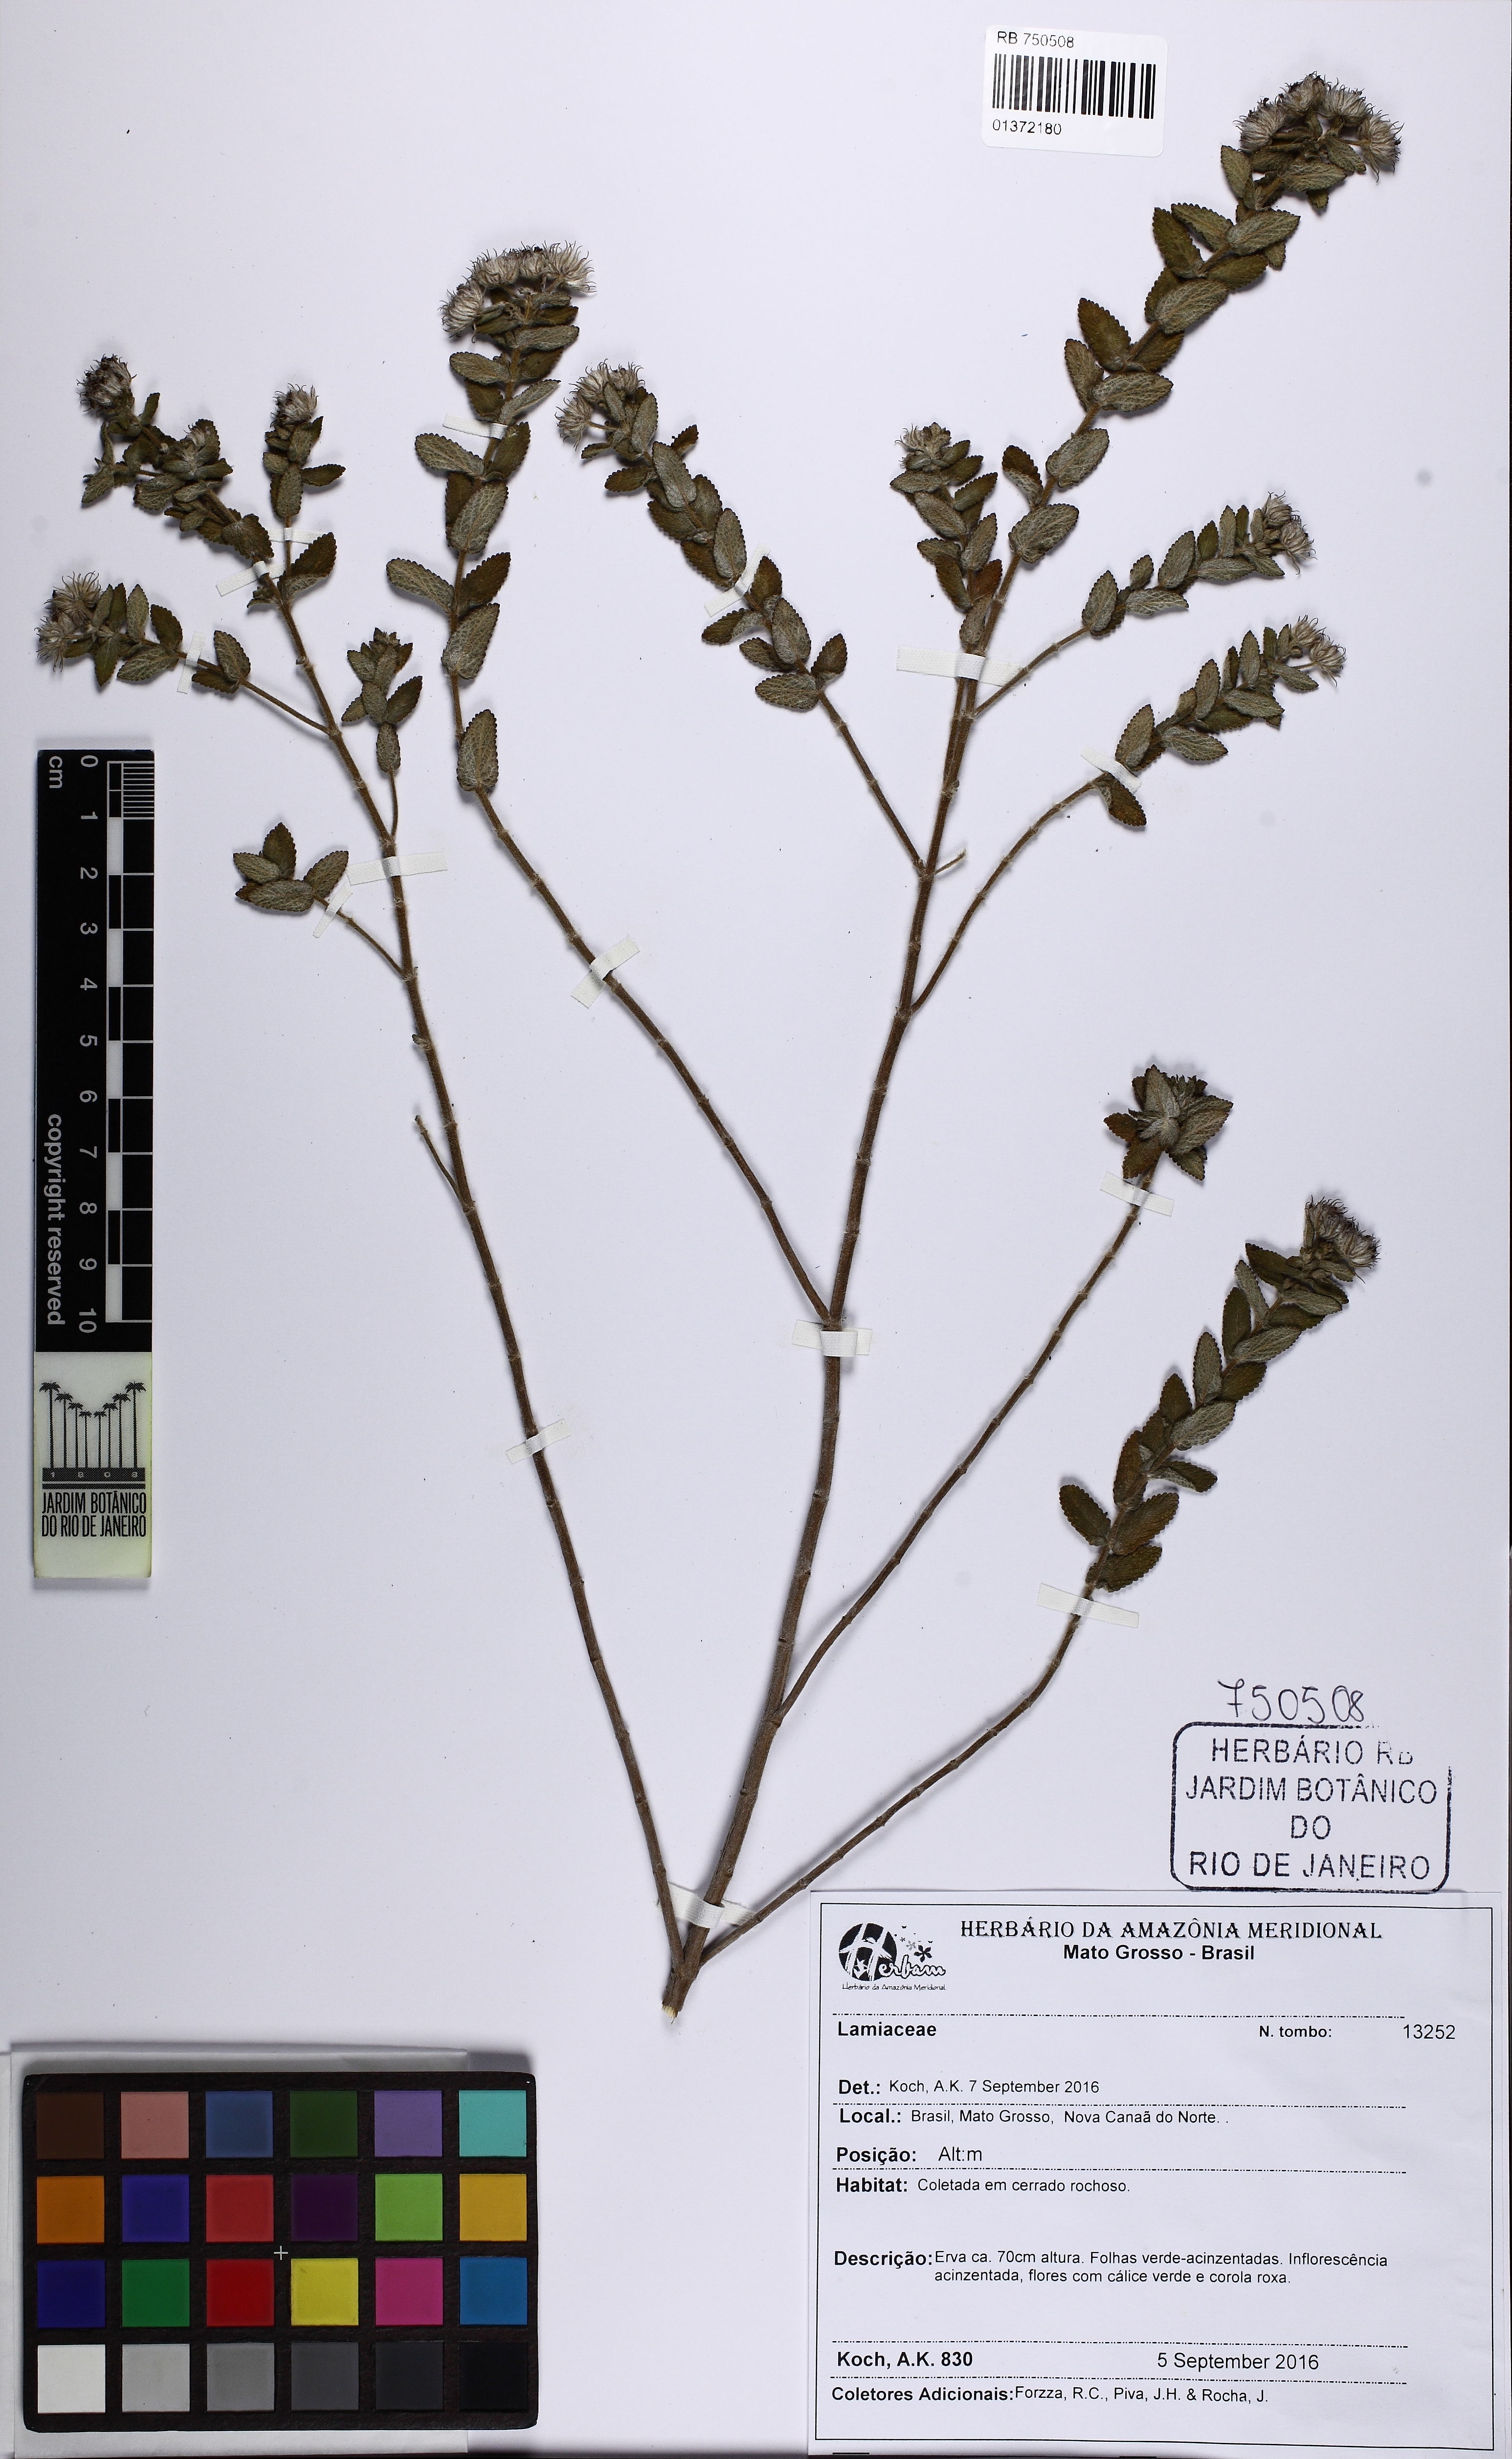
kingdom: Plantae
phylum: Tracheophyta
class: Magnoliopsida
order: Lamiales
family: Lamiaceae
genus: Hyptis
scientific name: Hyptis crenata
